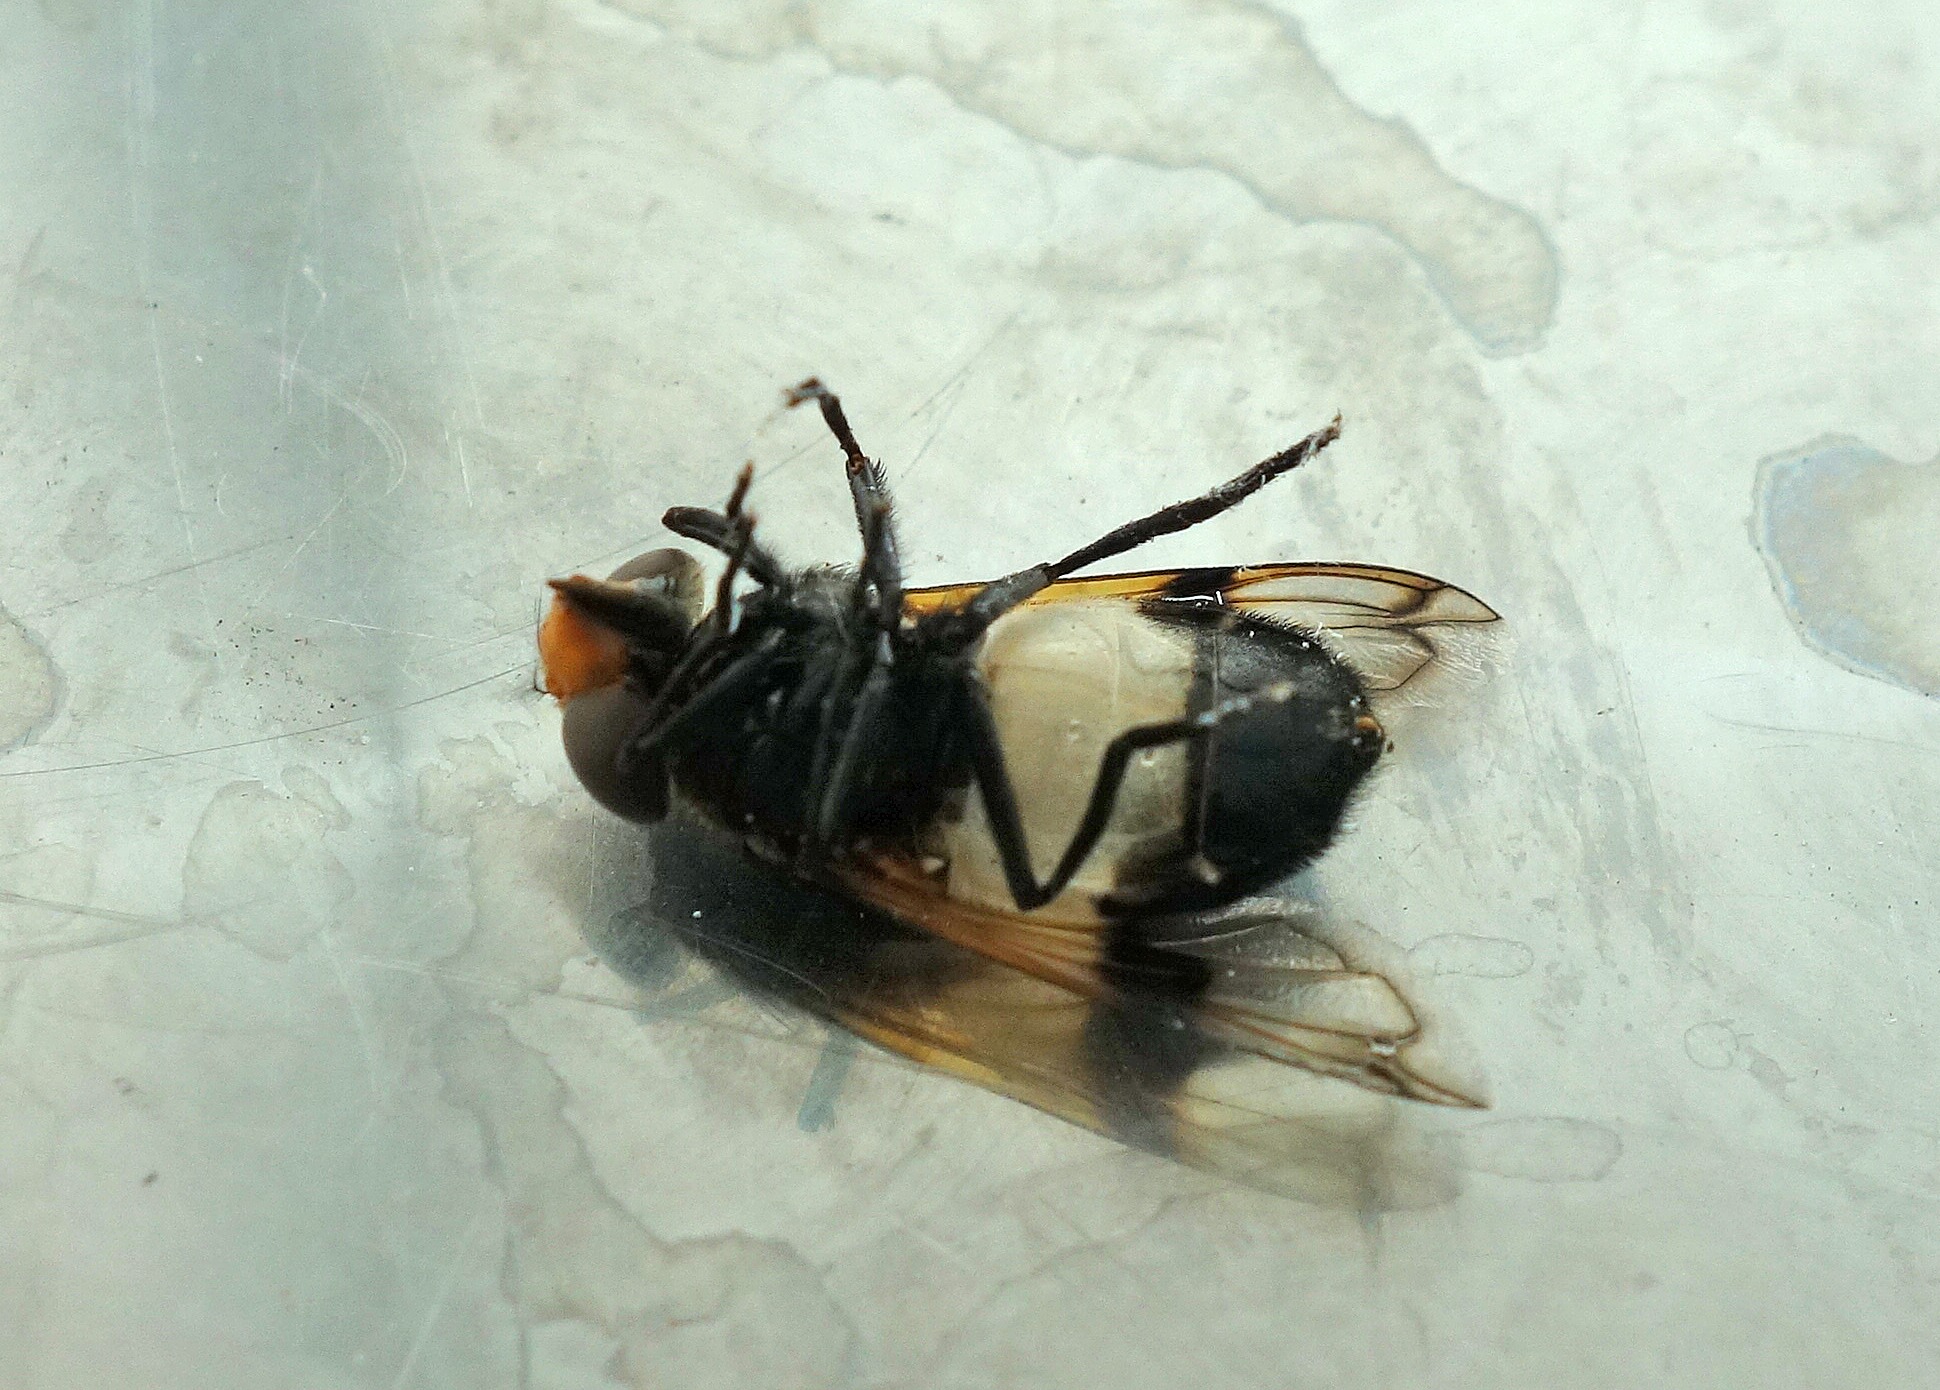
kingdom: Animalia
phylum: Arthropoda
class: Insecta
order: Diptera
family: Syrphidae
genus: Volucella
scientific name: Volucella pellucens
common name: Hvidbåndet humlesvirreflue
